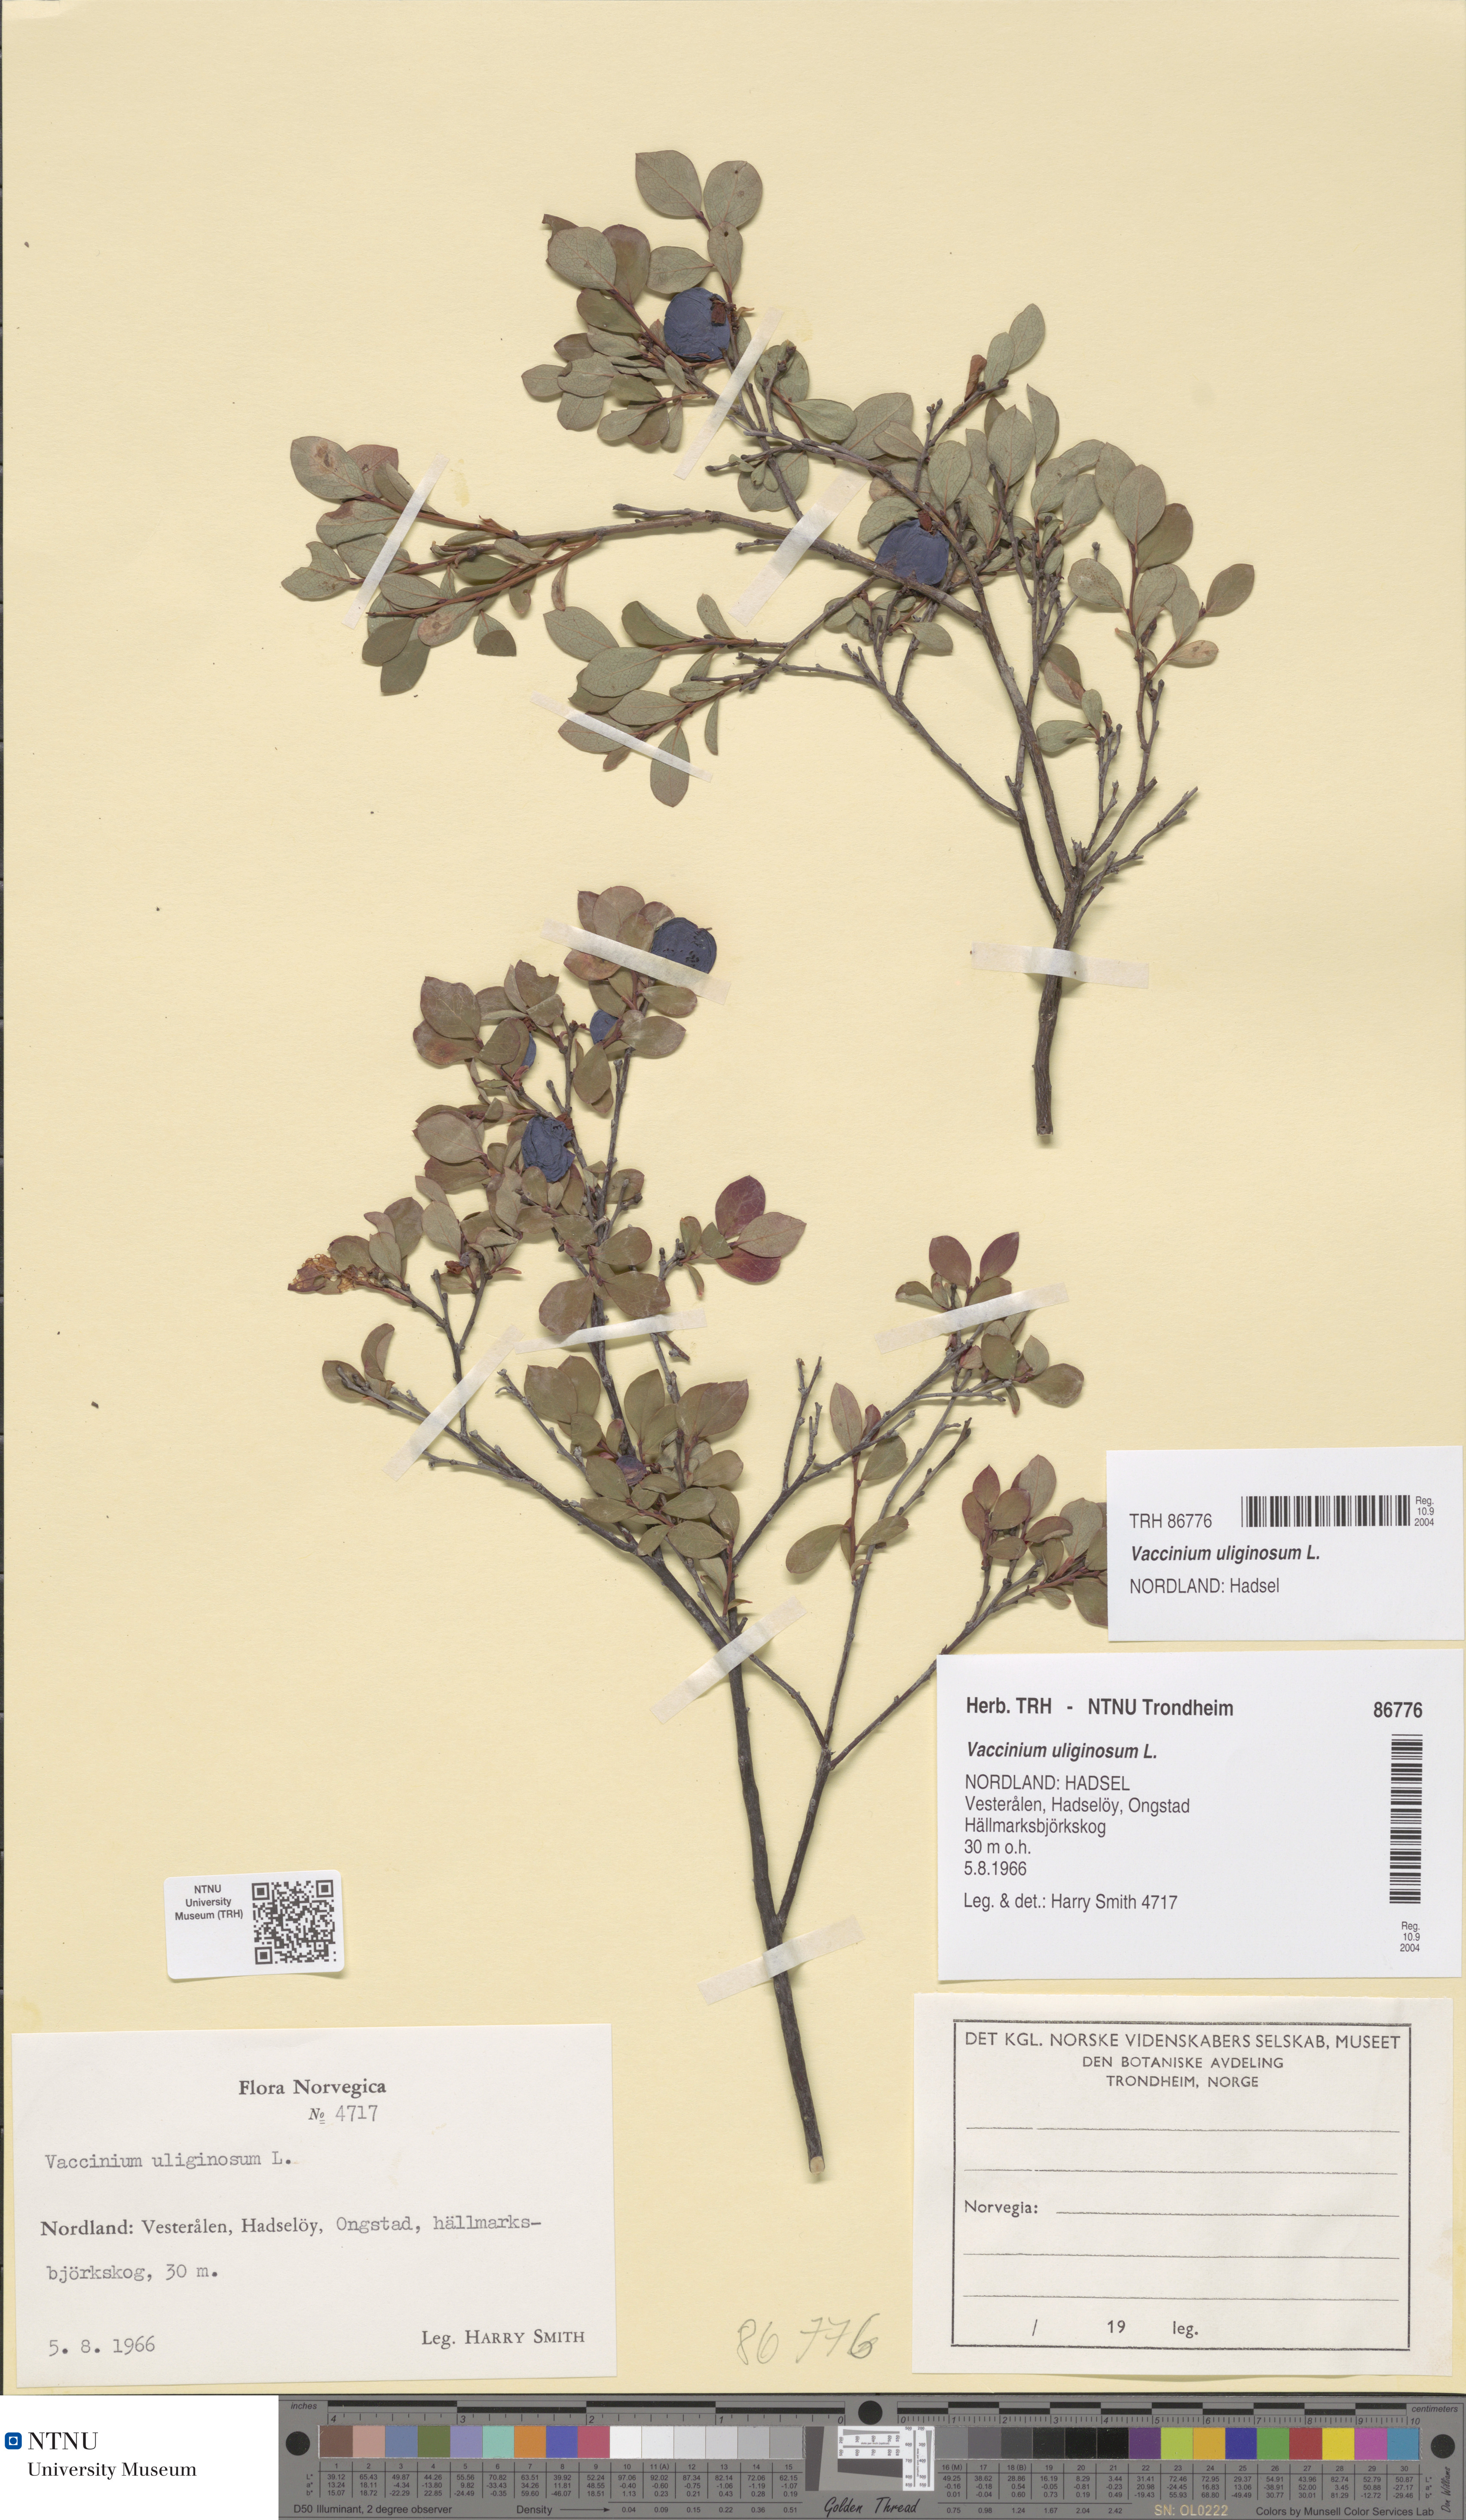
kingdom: Plantae
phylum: Tracheophyta
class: Magnoliopsida
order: Ericales
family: Ericaceae
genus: Vaccinium
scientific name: Vaccinium uliginosum
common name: Bog bilberry
